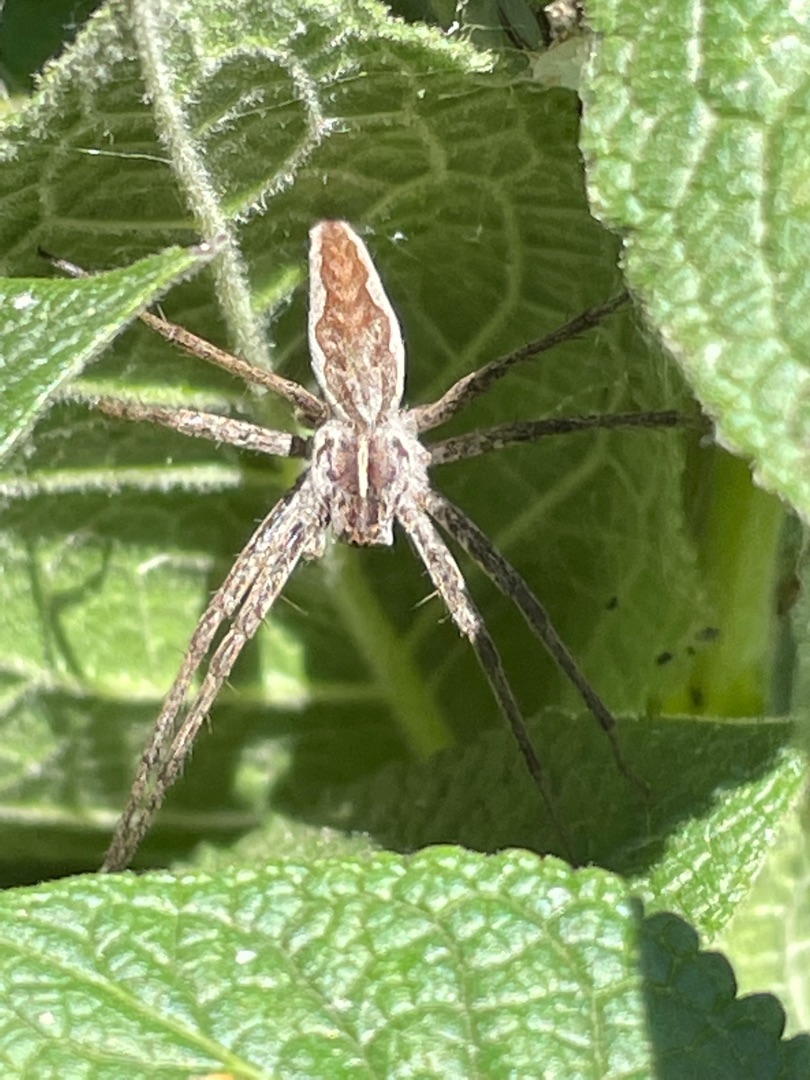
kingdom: Animalia
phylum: Arthropoda
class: Arachnida
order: Araneae
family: Pisauridae
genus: Pisaura
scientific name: Pisaura mirabilis
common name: Almindelig rovedderkop
